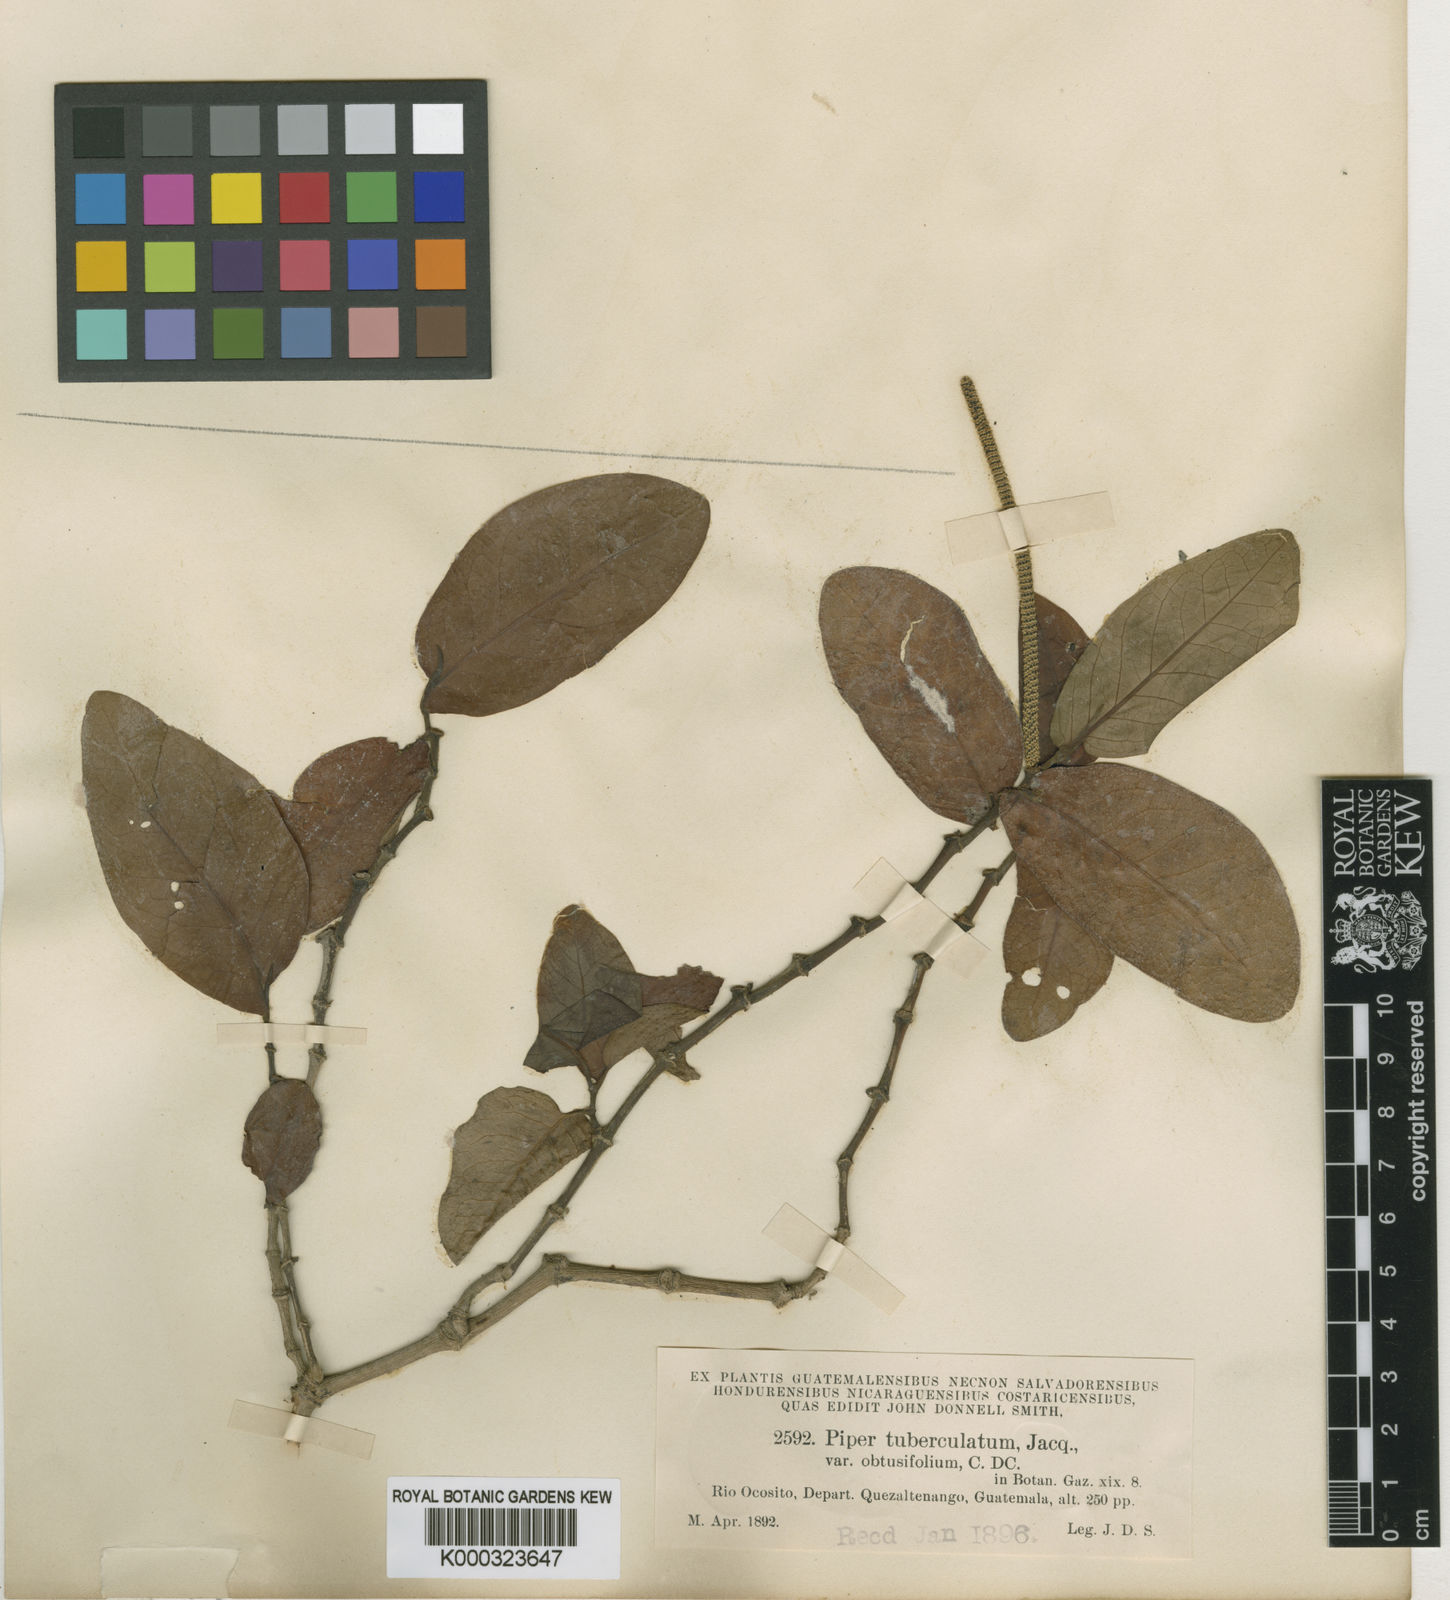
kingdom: Plantae
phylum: Tracheophyta
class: Magnoliopsida
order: Piperales
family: Piperaceae
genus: Piper
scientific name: Piper tuberculatum
